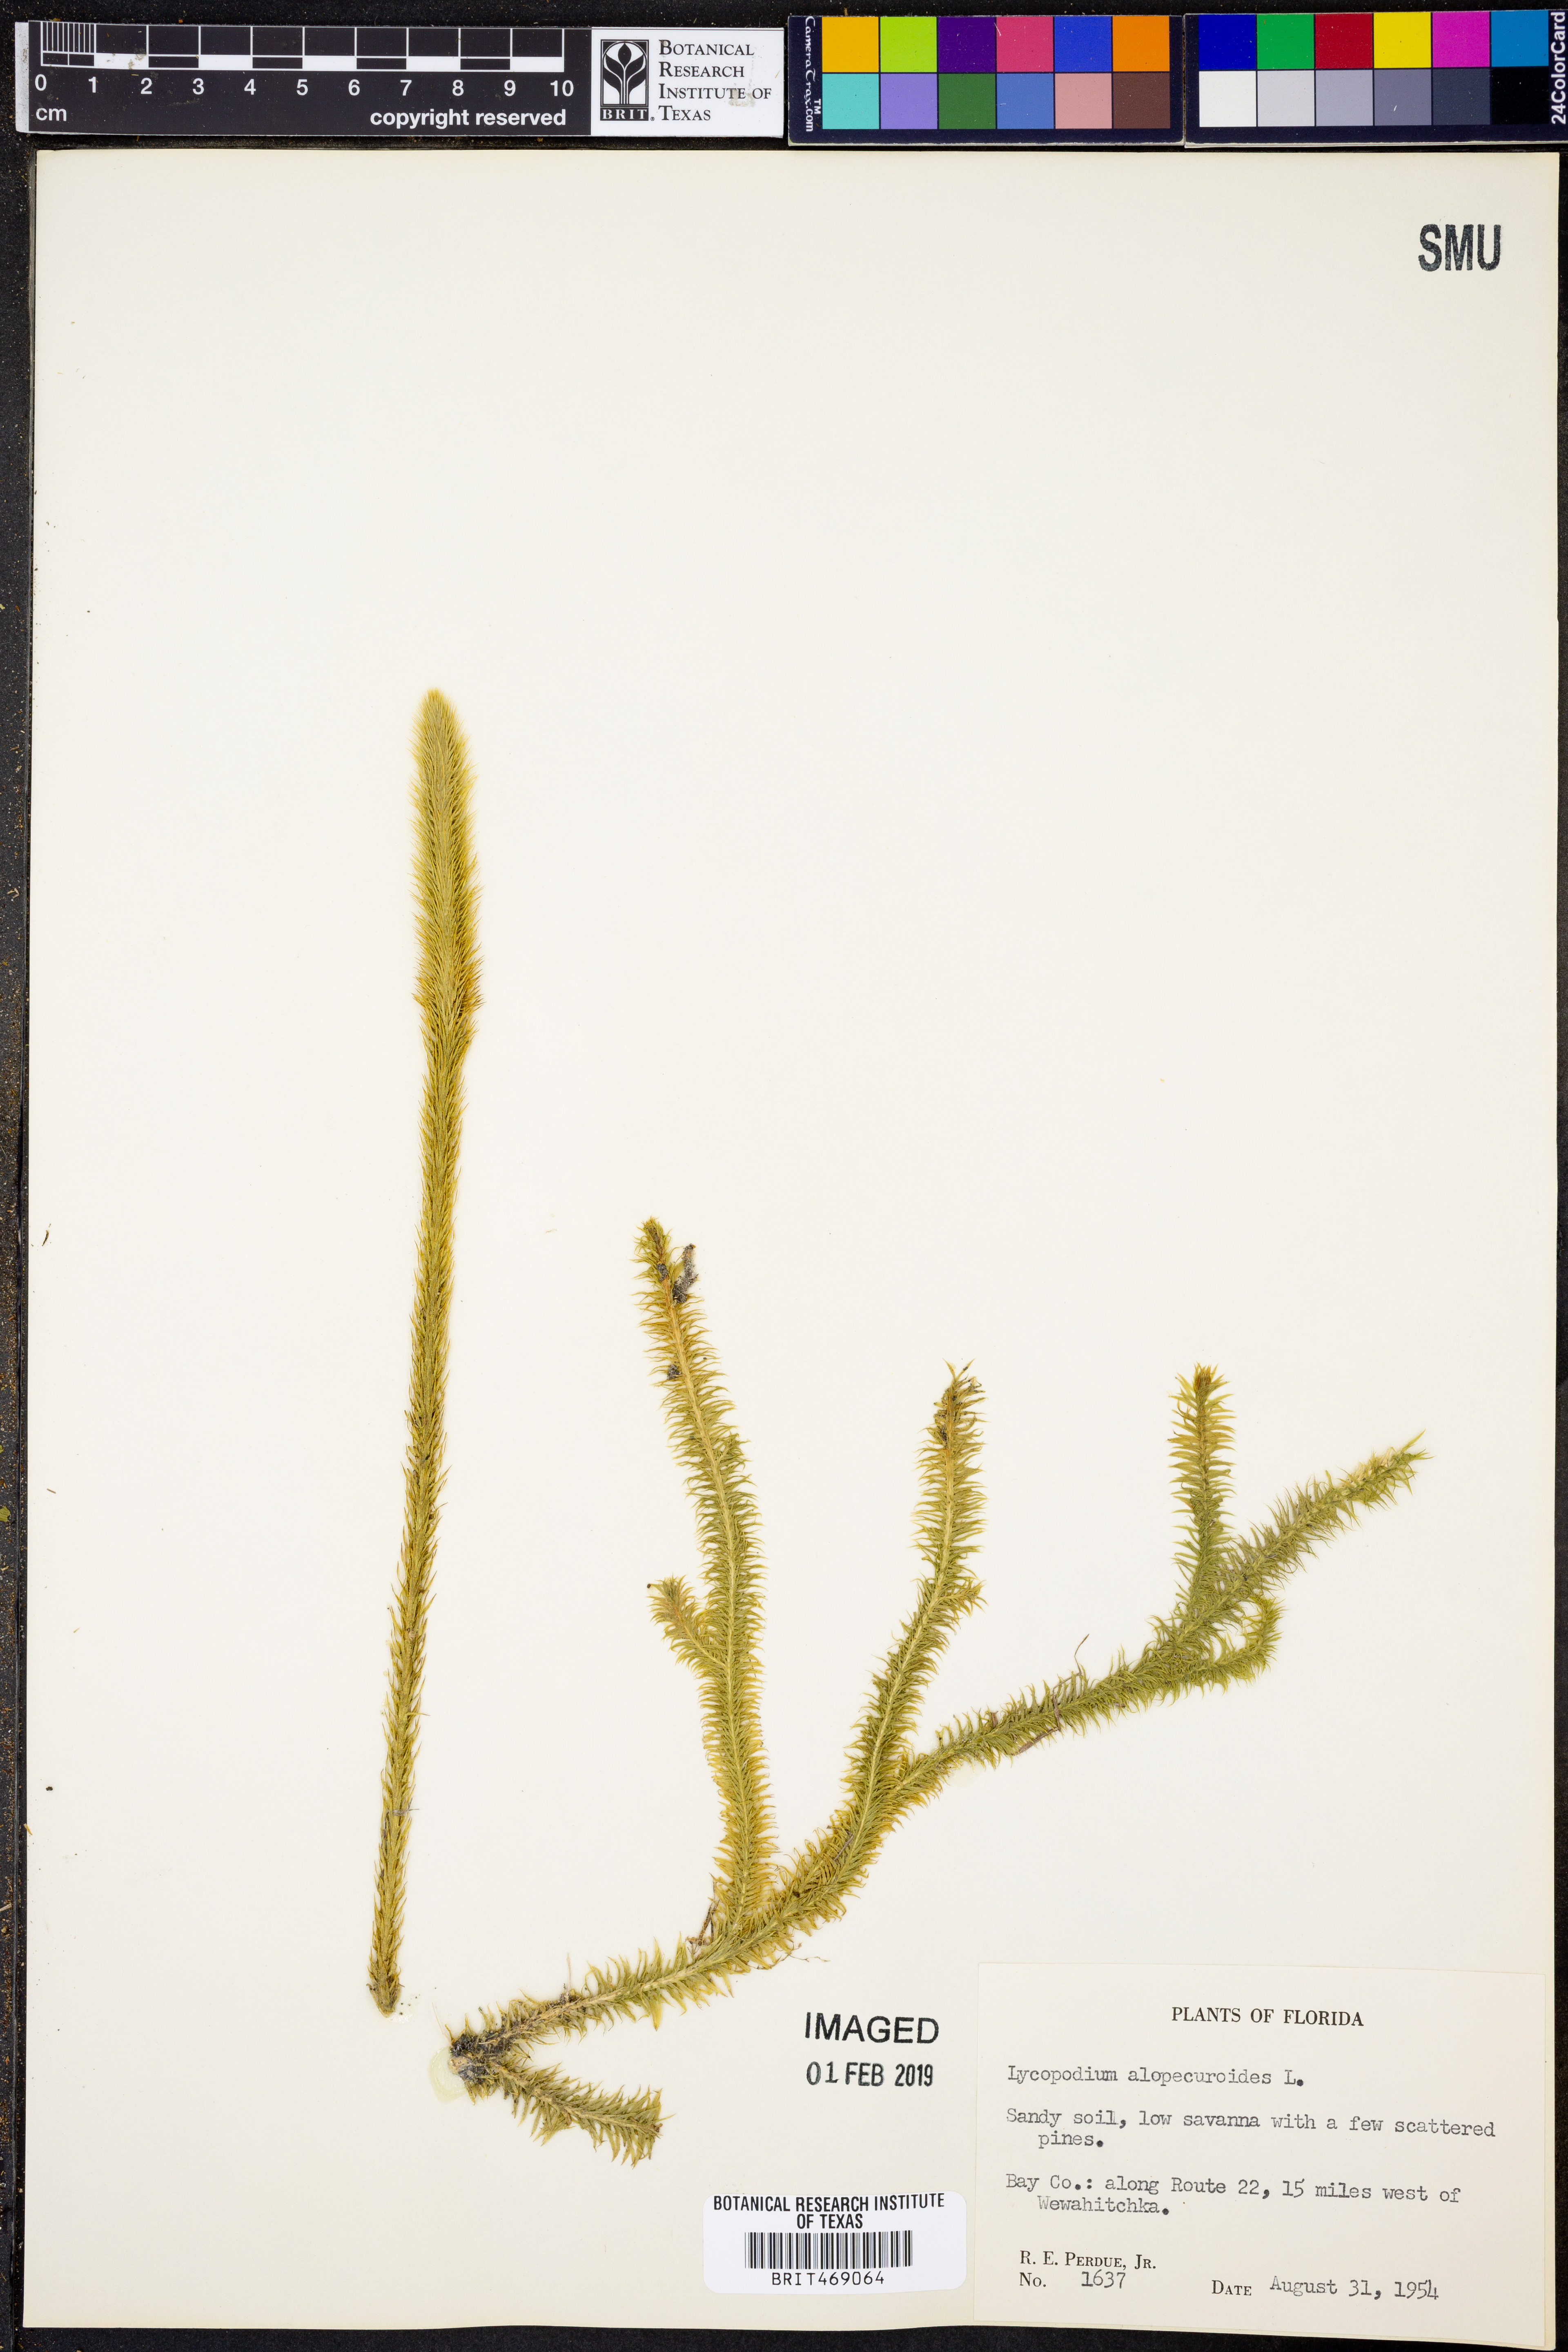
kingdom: Plantae
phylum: Tracheophyta
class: Lycopodiopsida
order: Lycopodiales
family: Lycopodiaceae
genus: Lycopodiella
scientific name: Lycopodiella alopecuroides
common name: Foxtail clubmoss
